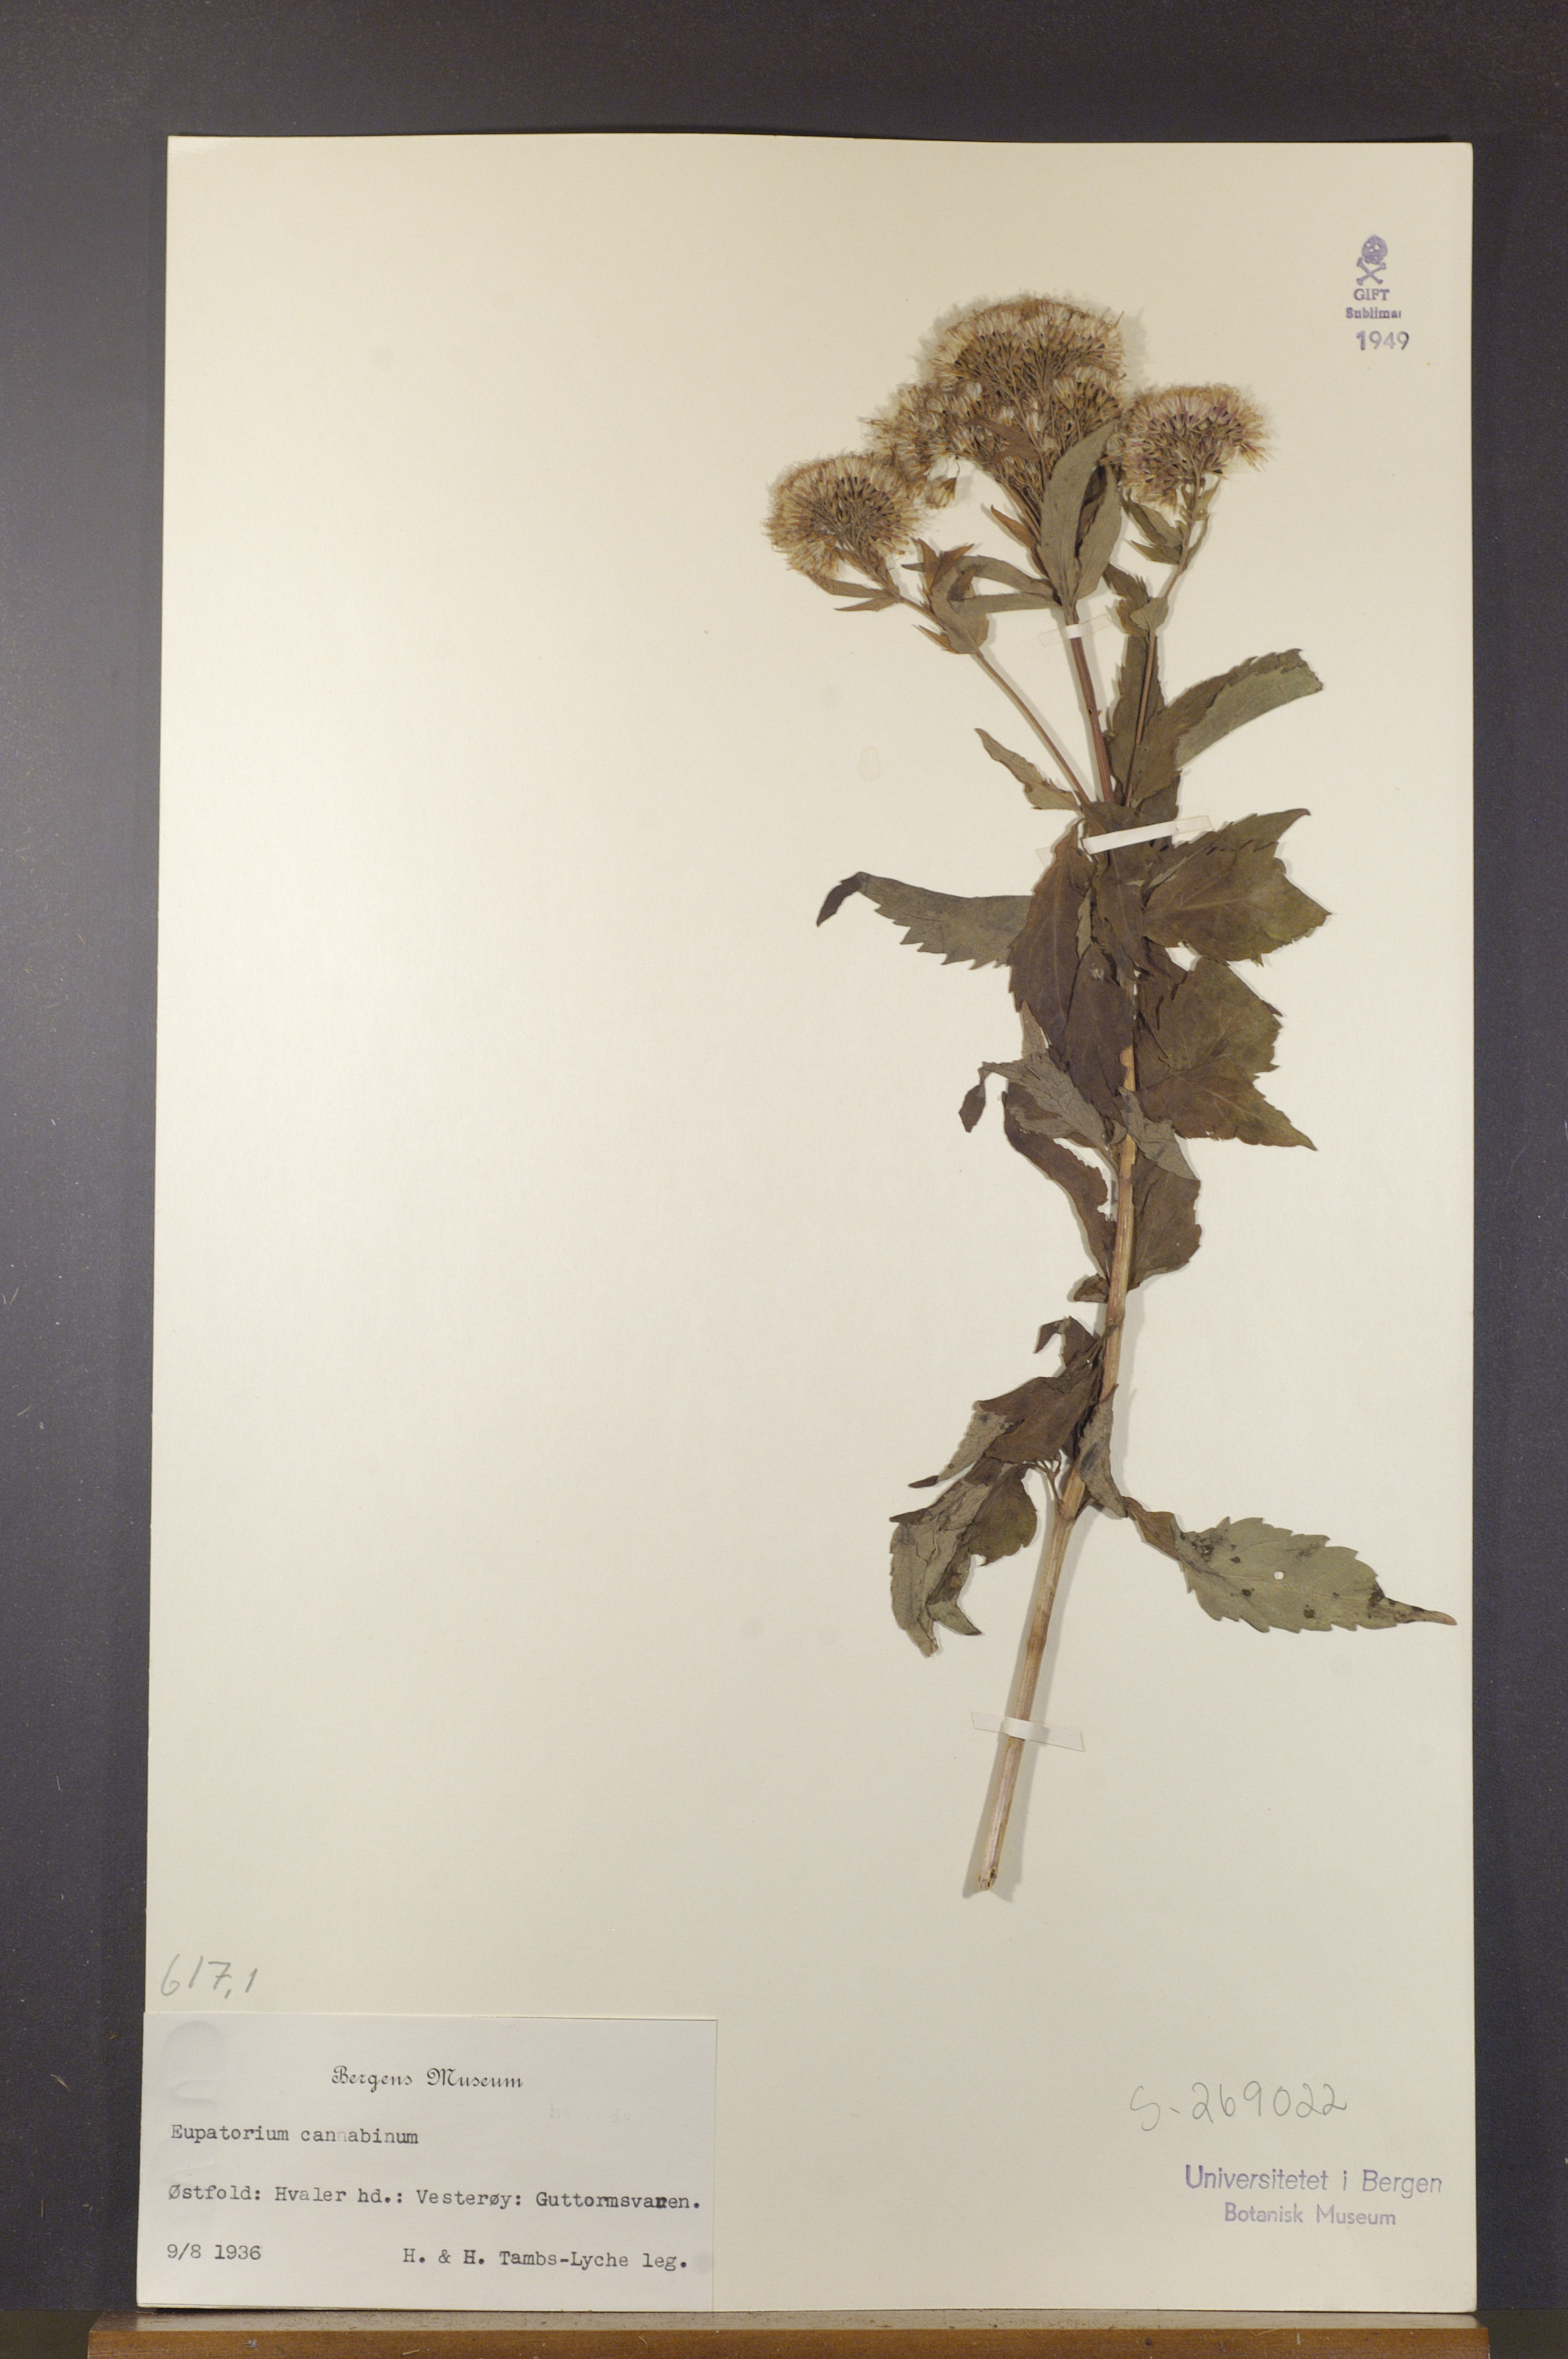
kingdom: Plantae
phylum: Tracheophyta
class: Magnoliopsida
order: Asterales
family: Asteraceae
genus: Eupatorium
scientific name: Eupatorium cannabinum
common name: Hemp-agrimony
